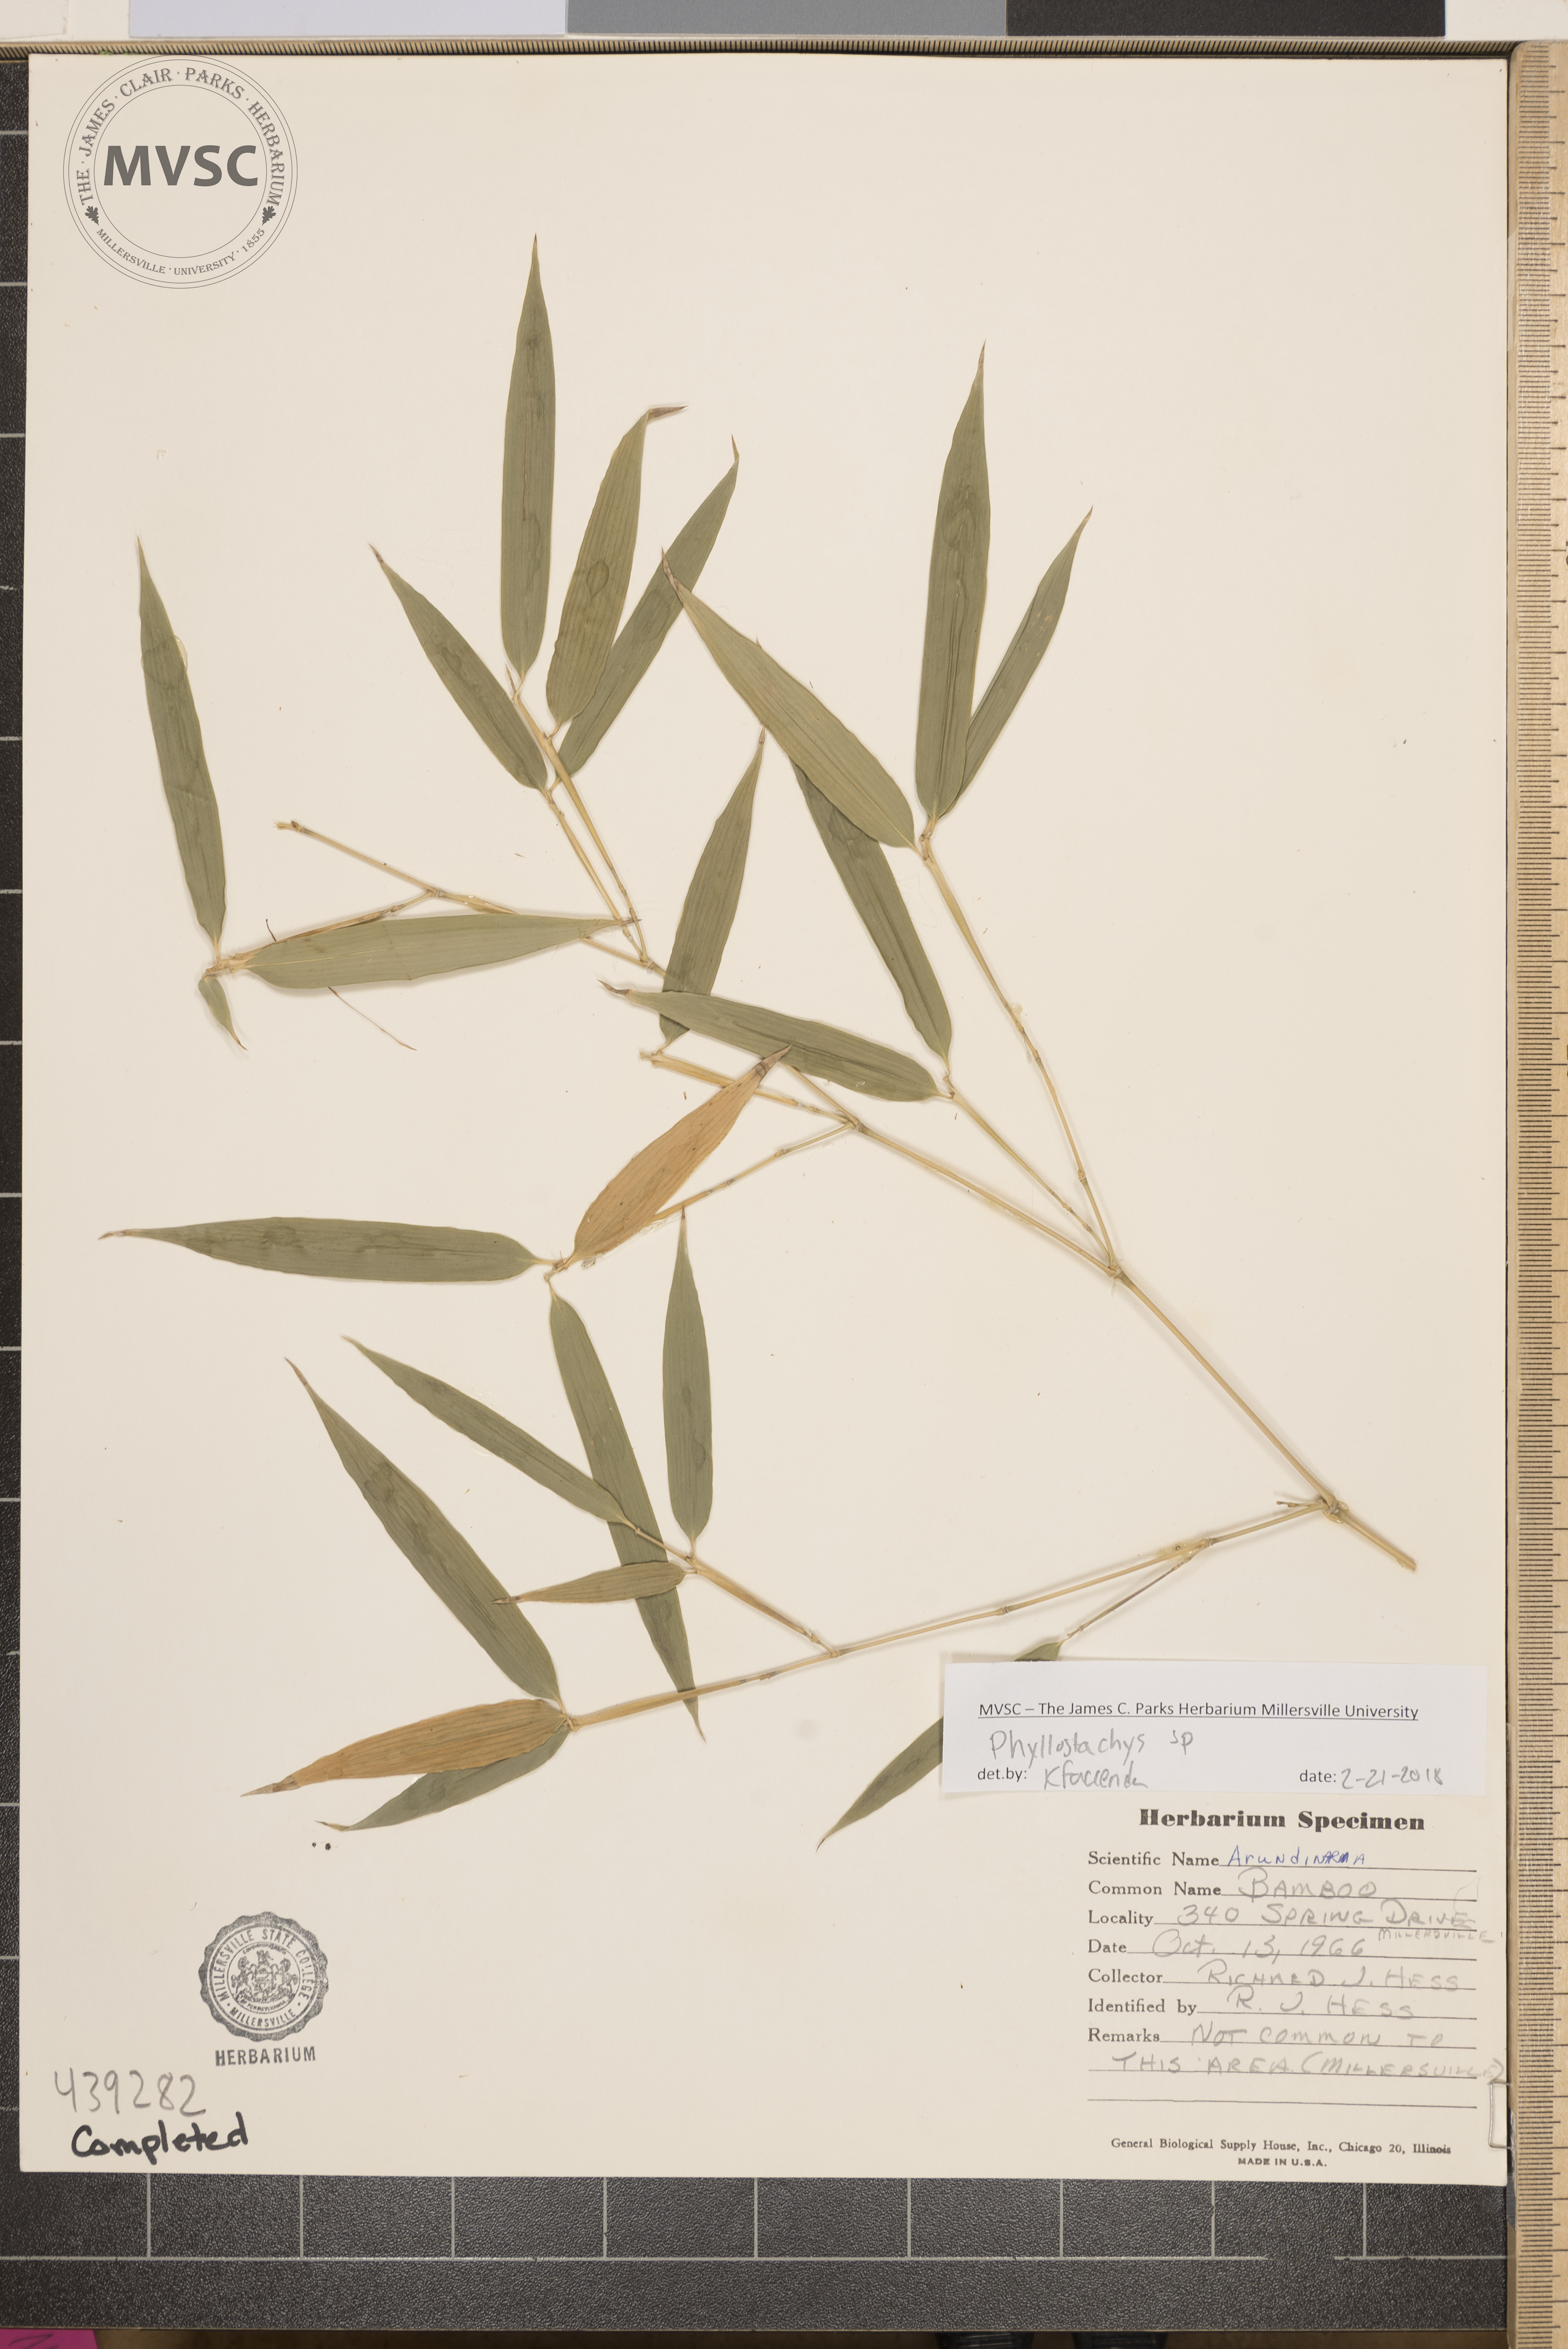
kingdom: Plantae
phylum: Tracheophyta
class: Liliopsida
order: Poales
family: Poaceae
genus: Phyllostachys
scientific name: Phyllostachys
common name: Bamboo
